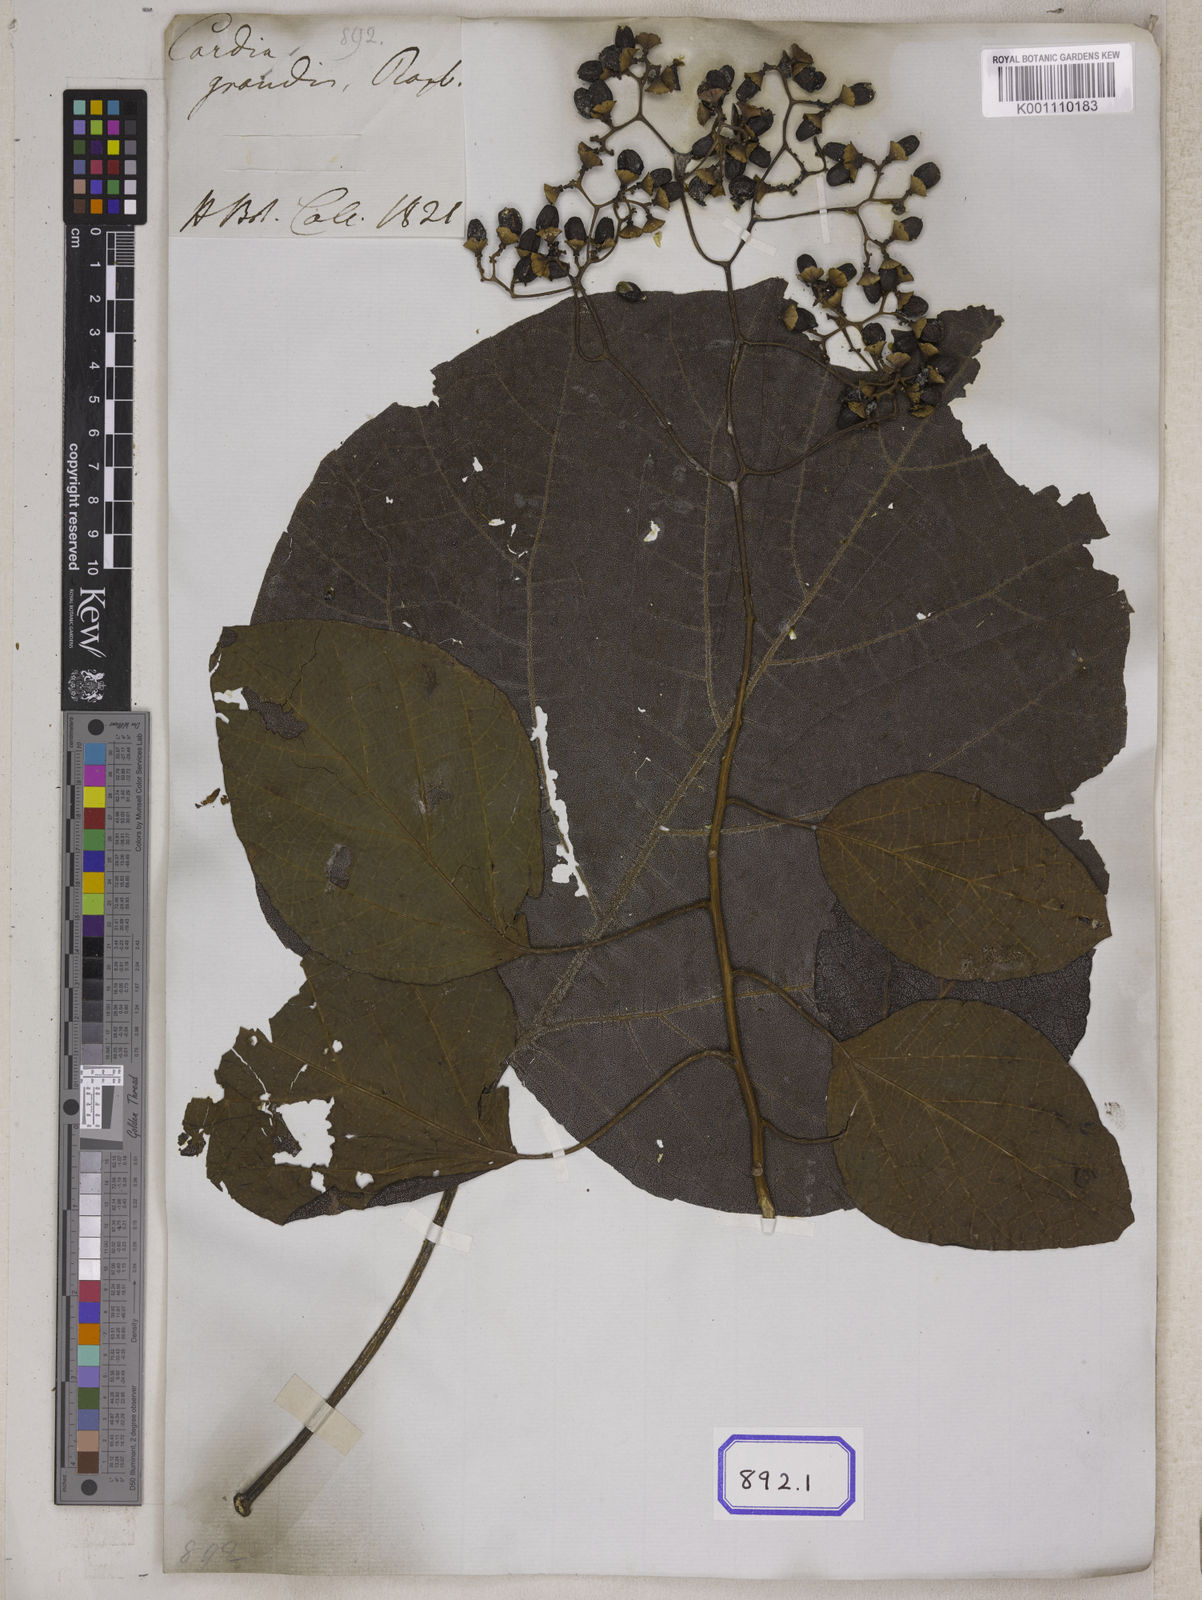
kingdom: Plantae
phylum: Tracheophyta
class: Magnoliopsida
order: Boraginales
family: Cordiaceae
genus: Cordia
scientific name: Cordia
